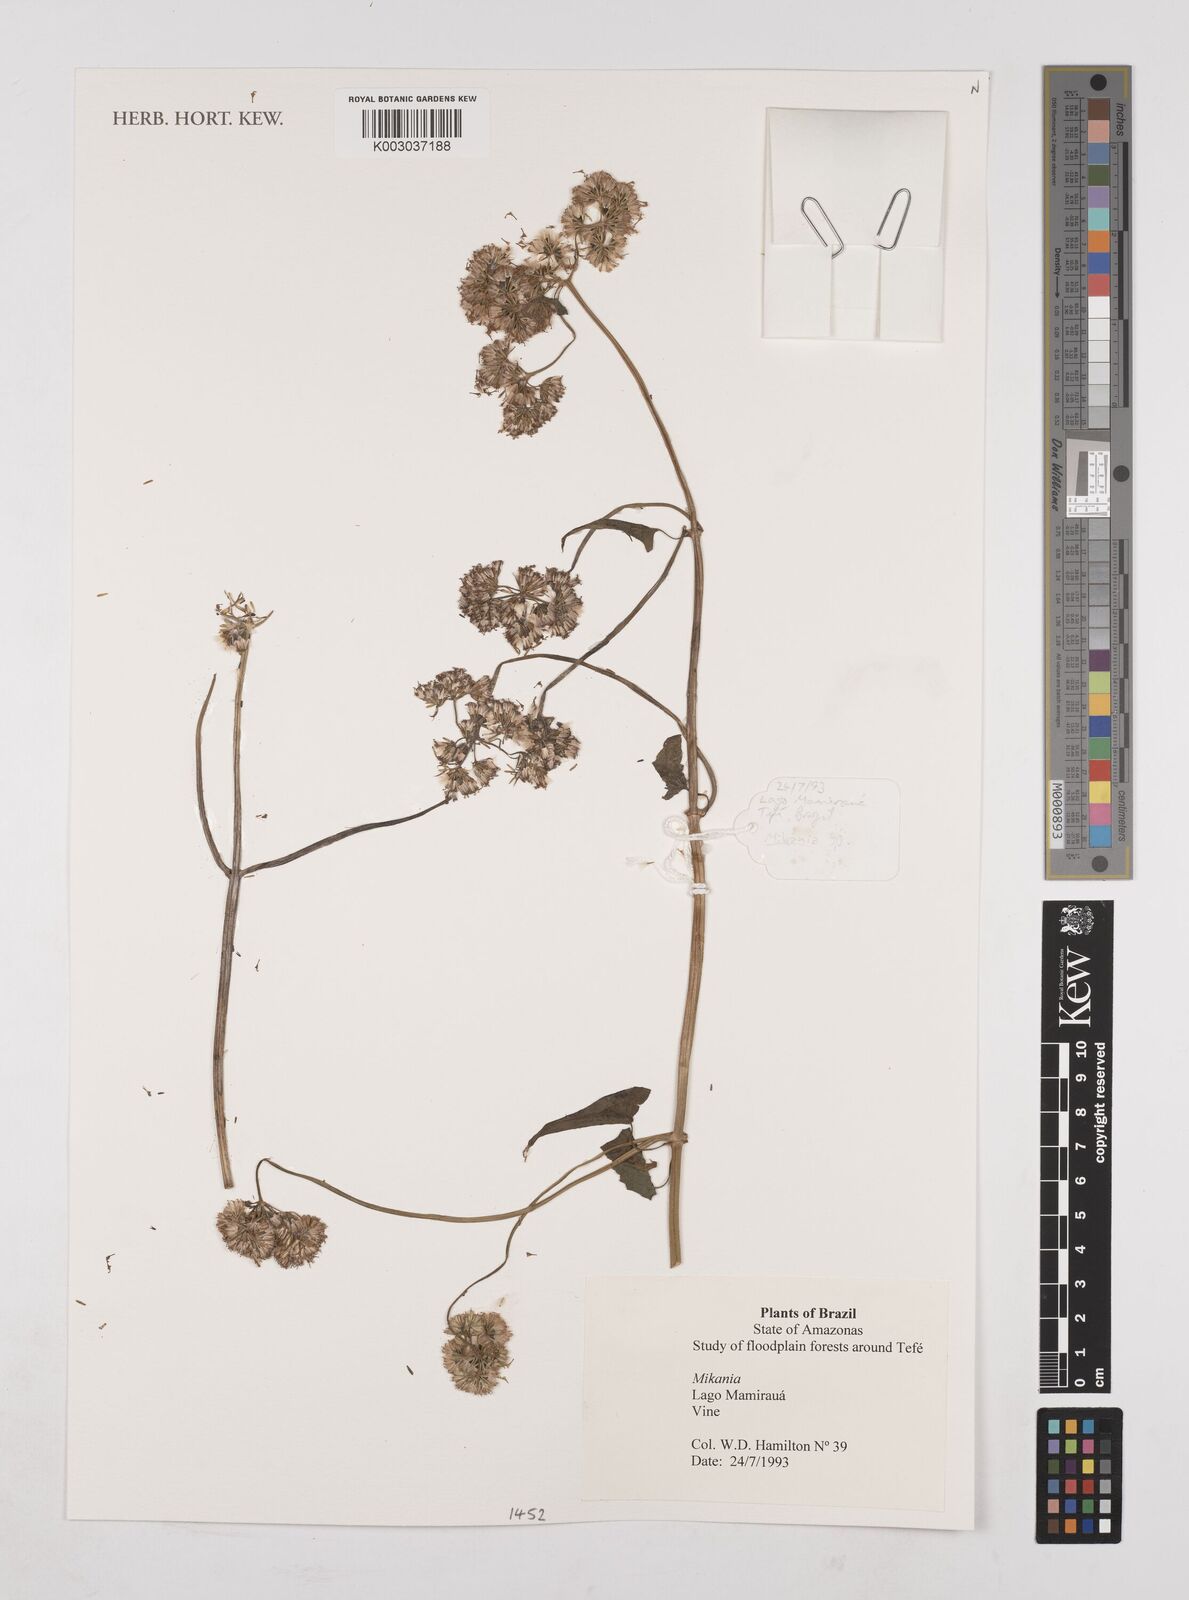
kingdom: Plantae
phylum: Tracheophyta
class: Magnoliopsida
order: Asterales
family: Asteraceae
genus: Mikania
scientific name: Mikania
